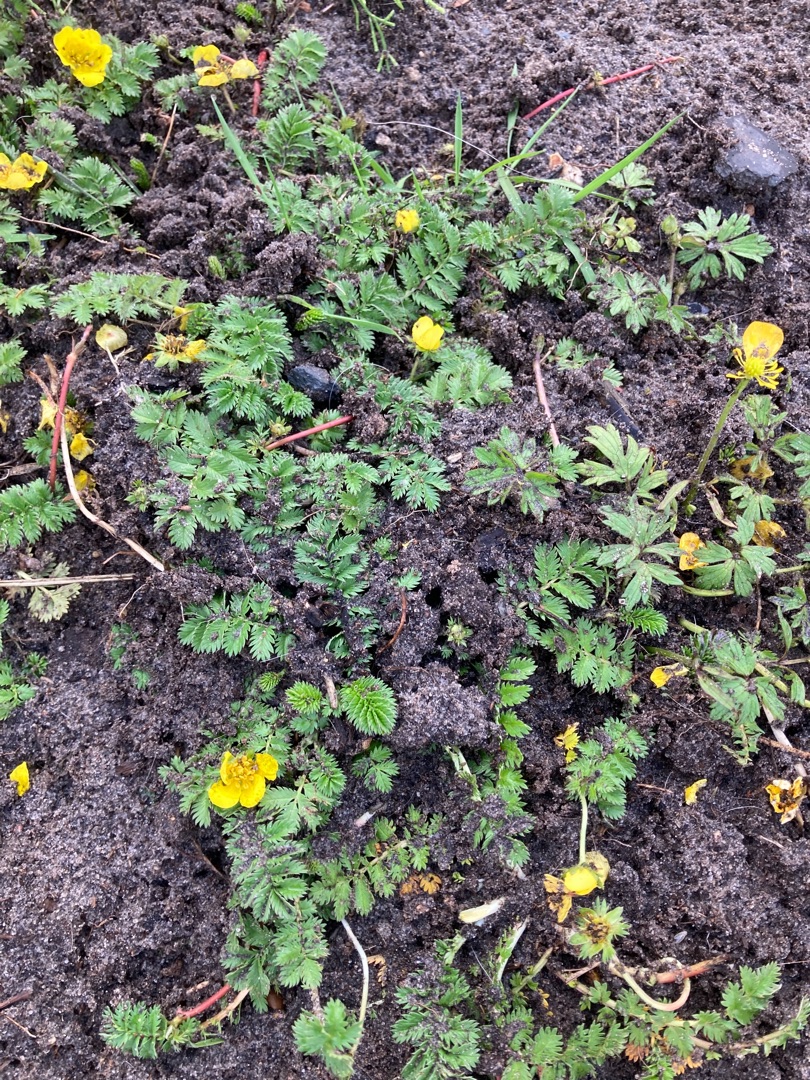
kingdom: Plantae
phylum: Tracheophyta
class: Magnoliopsida
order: Rosales
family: Rosaceae
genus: Argentina
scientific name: Argentina anserina
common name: Gåsepotentil
